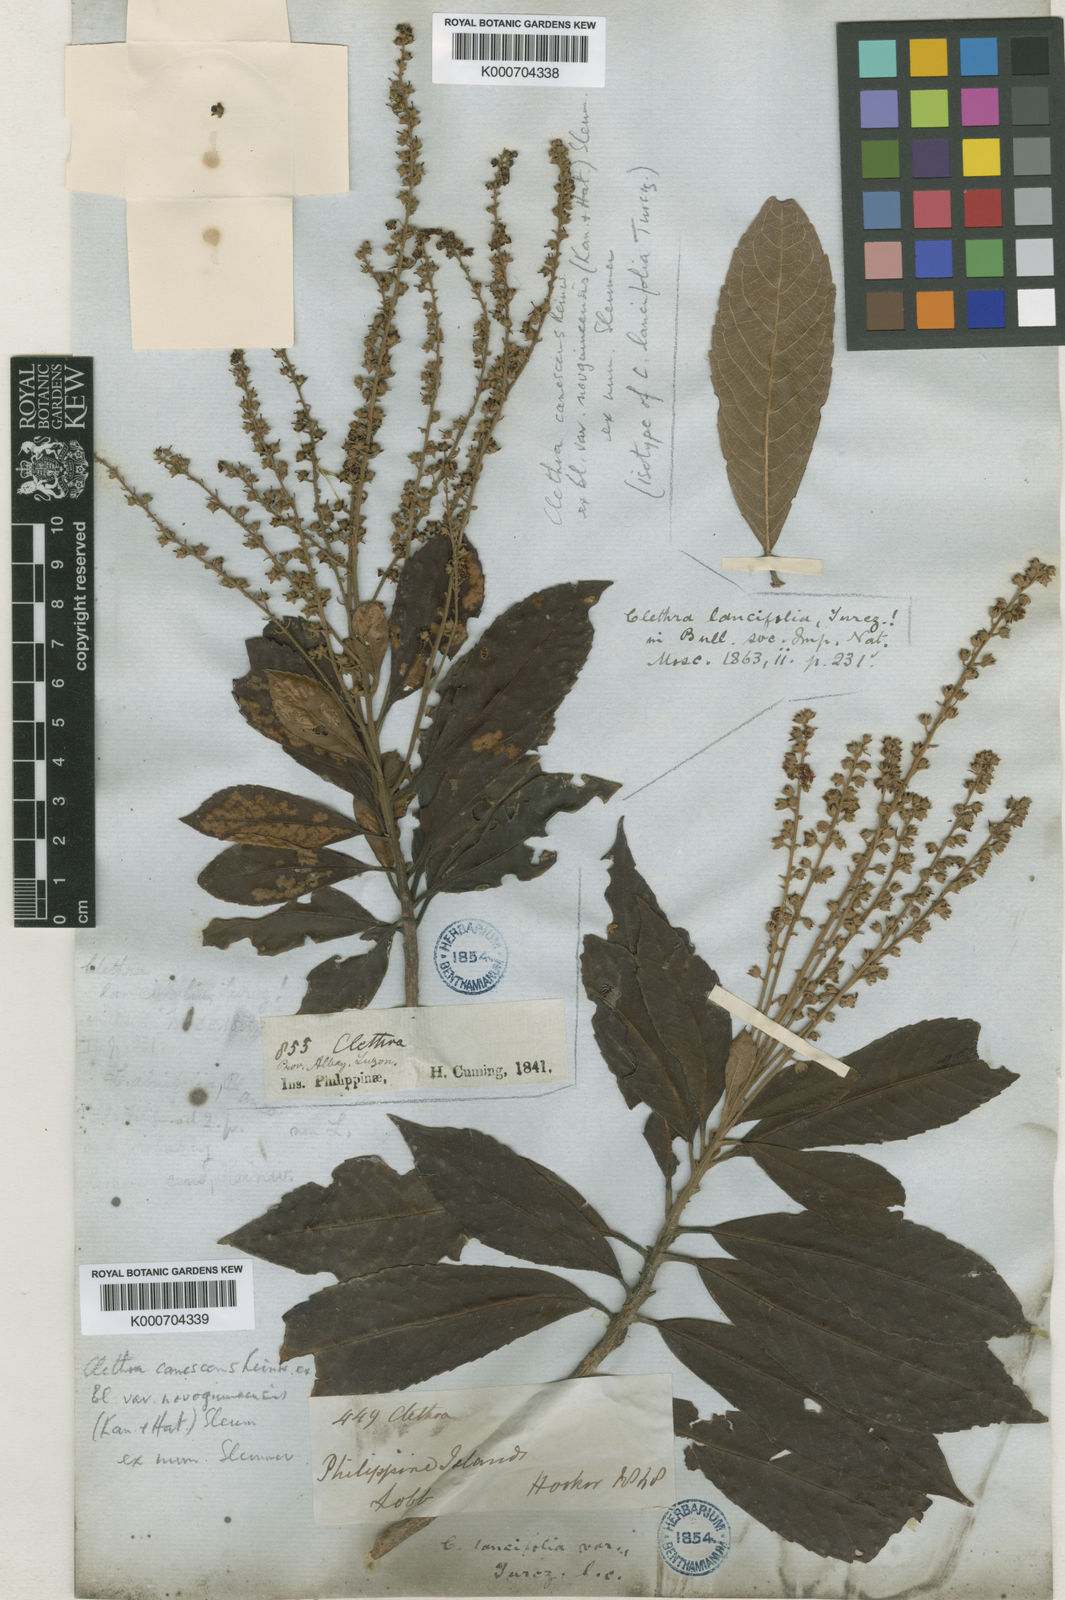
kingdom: Plantae
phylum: Tracheophyta
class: Magnoliopsida
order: Ericales
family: Clethraceae
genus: Clethra
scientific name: Clethra canescens
